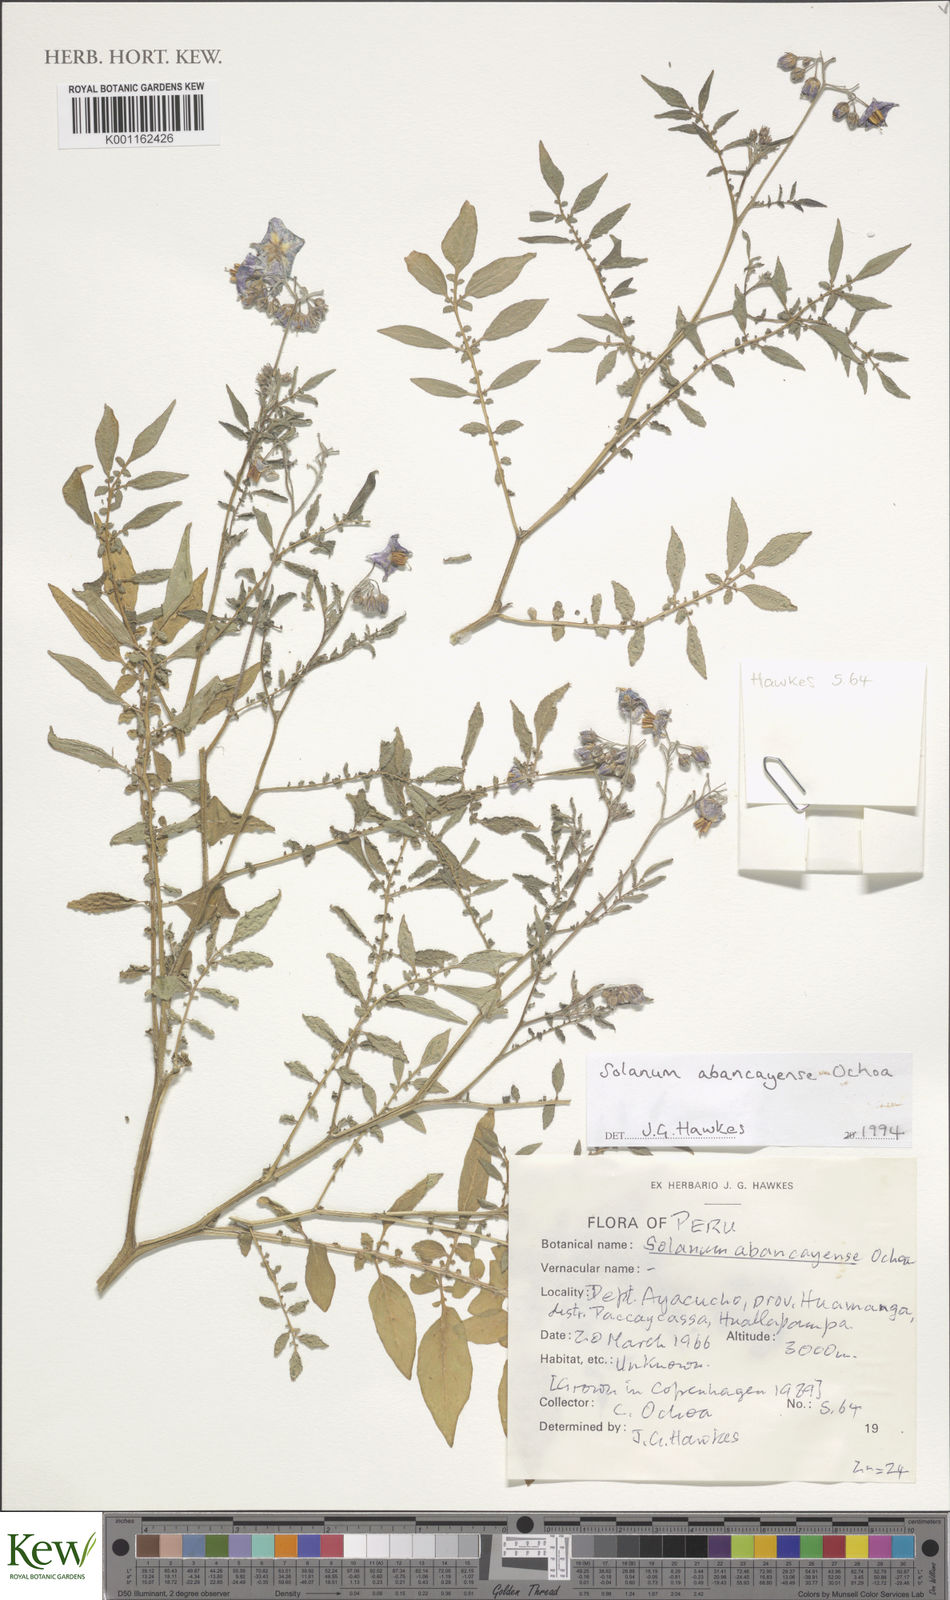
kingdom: Plantae
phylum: Tracheophyta
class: Magnoliopsida
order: Solanales
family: Solanaceae
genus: Solanum
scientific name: Solanum brevicaule
